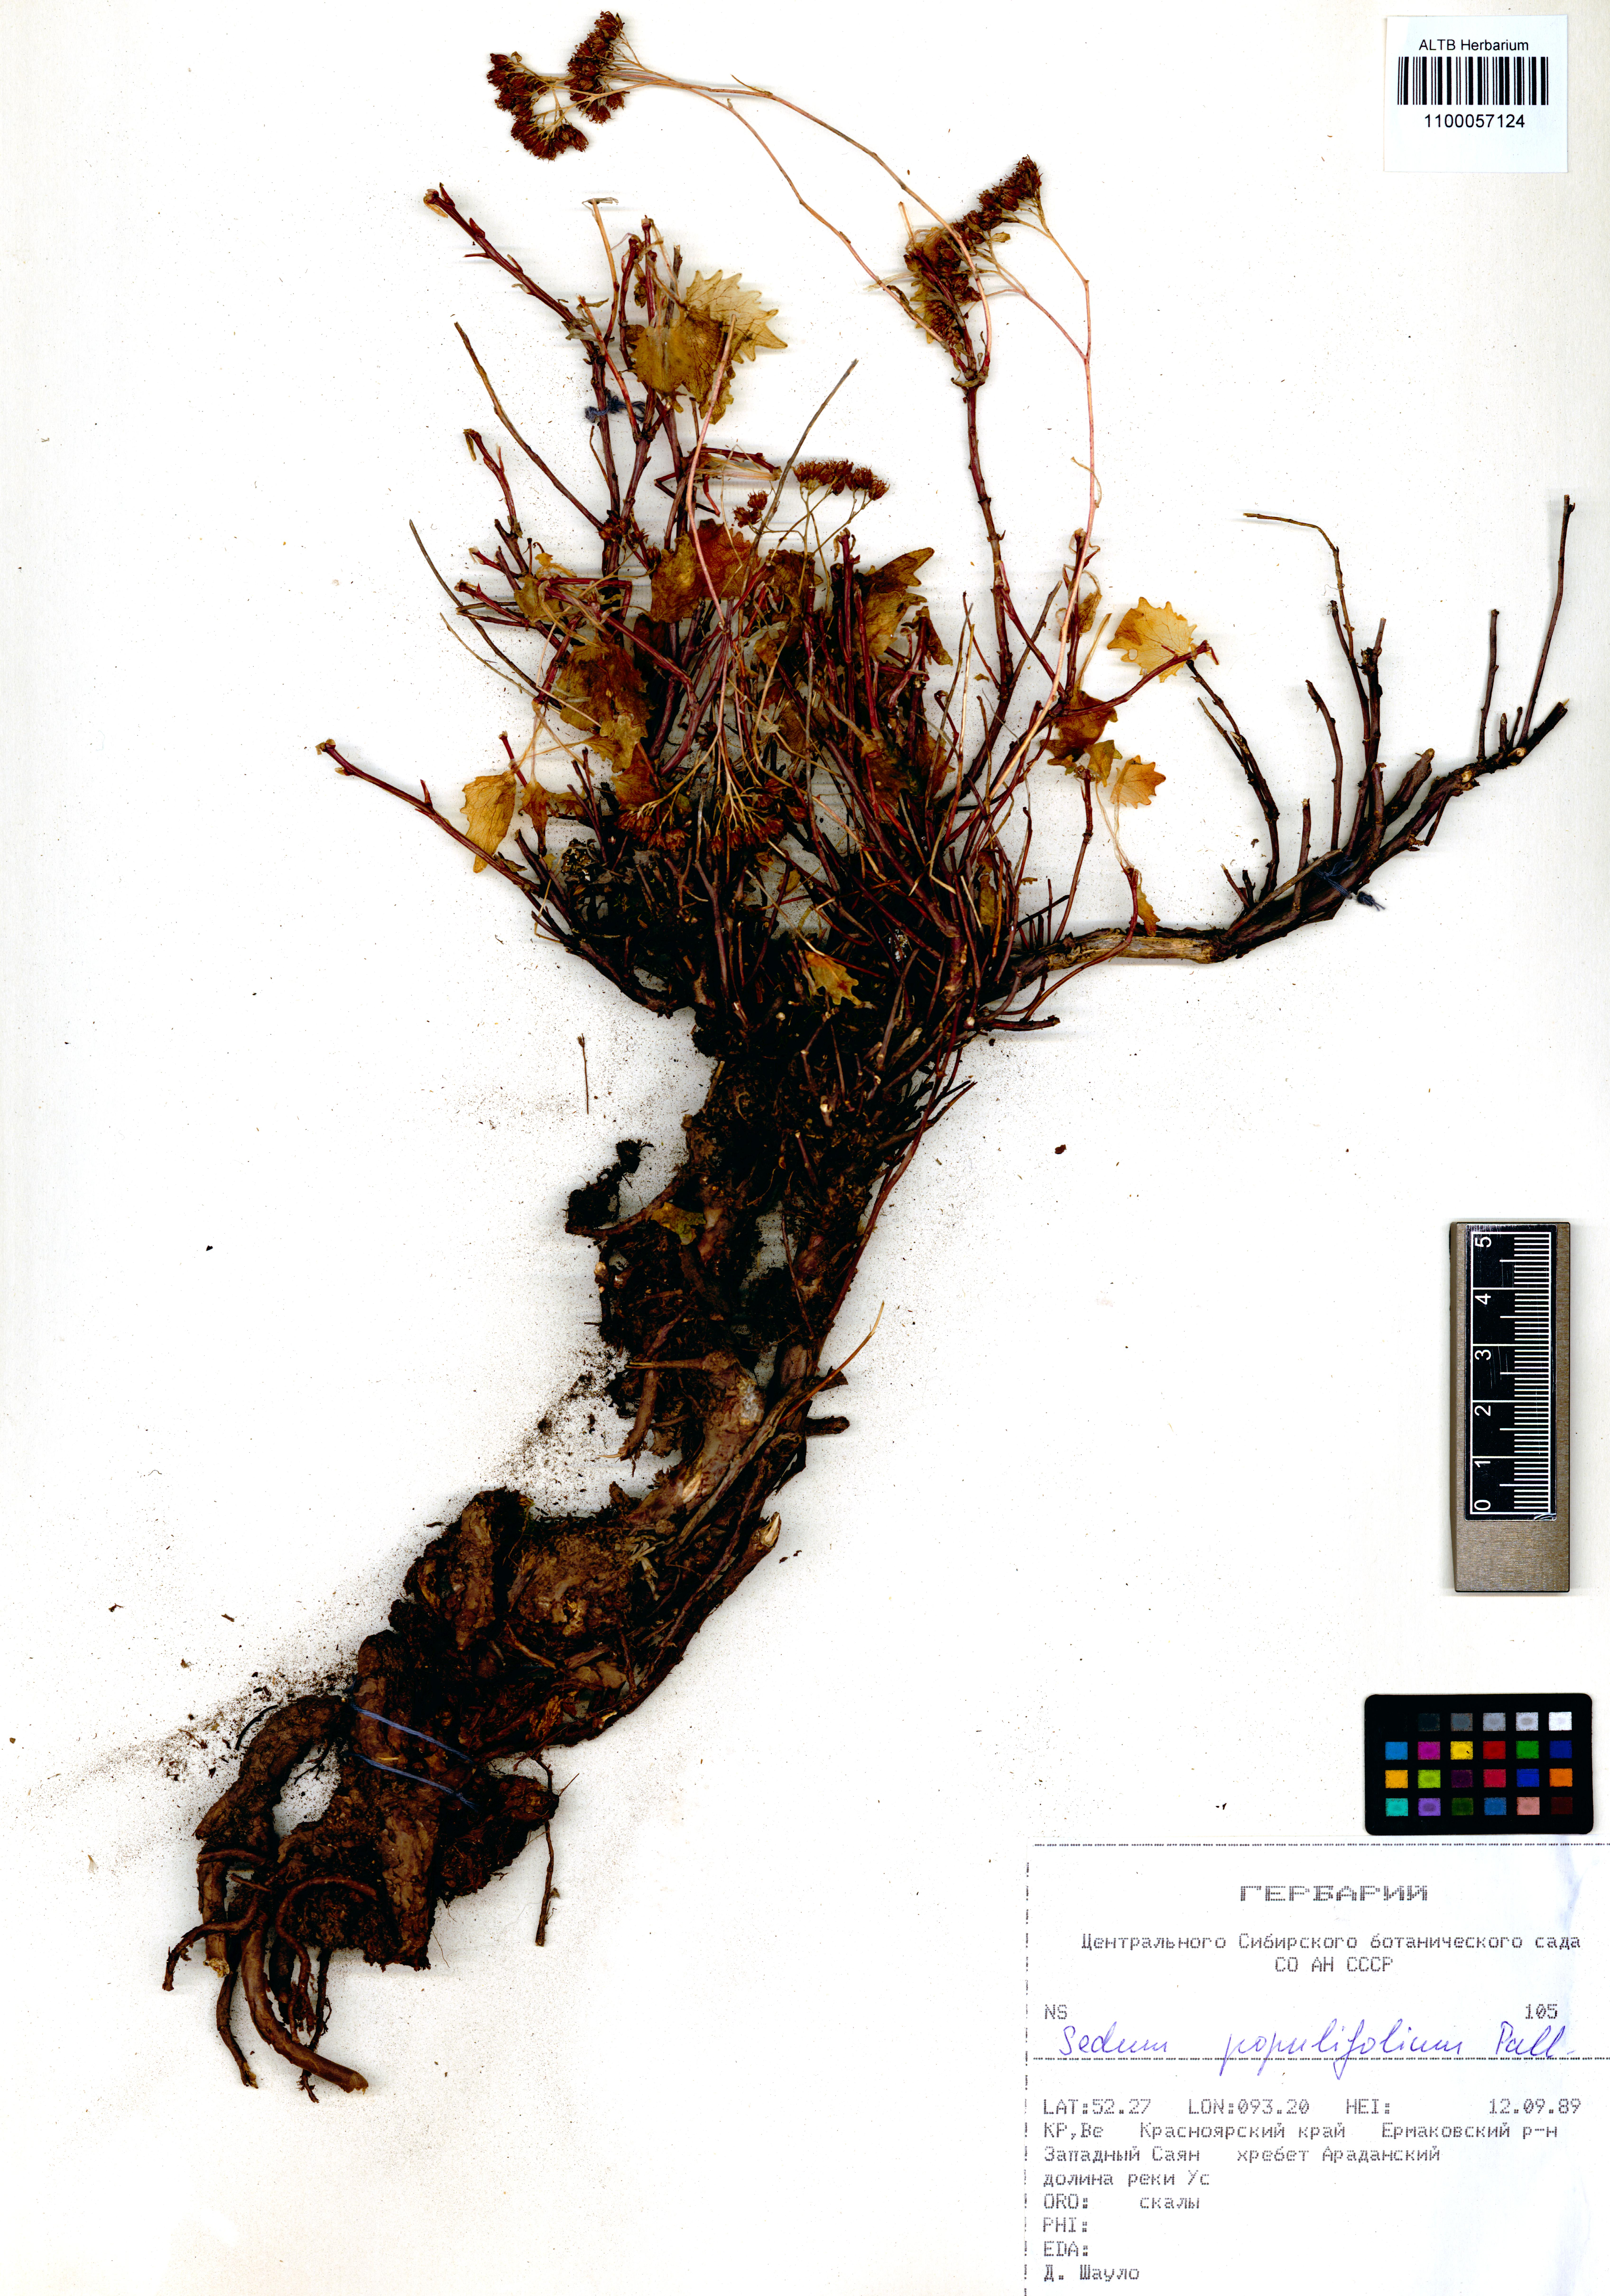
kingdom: Plantae
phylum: Tracheophyta
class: Magnoliopsida
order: Saxifragales
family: Crassulaceae
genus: Hylotelephium
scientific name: Hylotelephium populifolium
